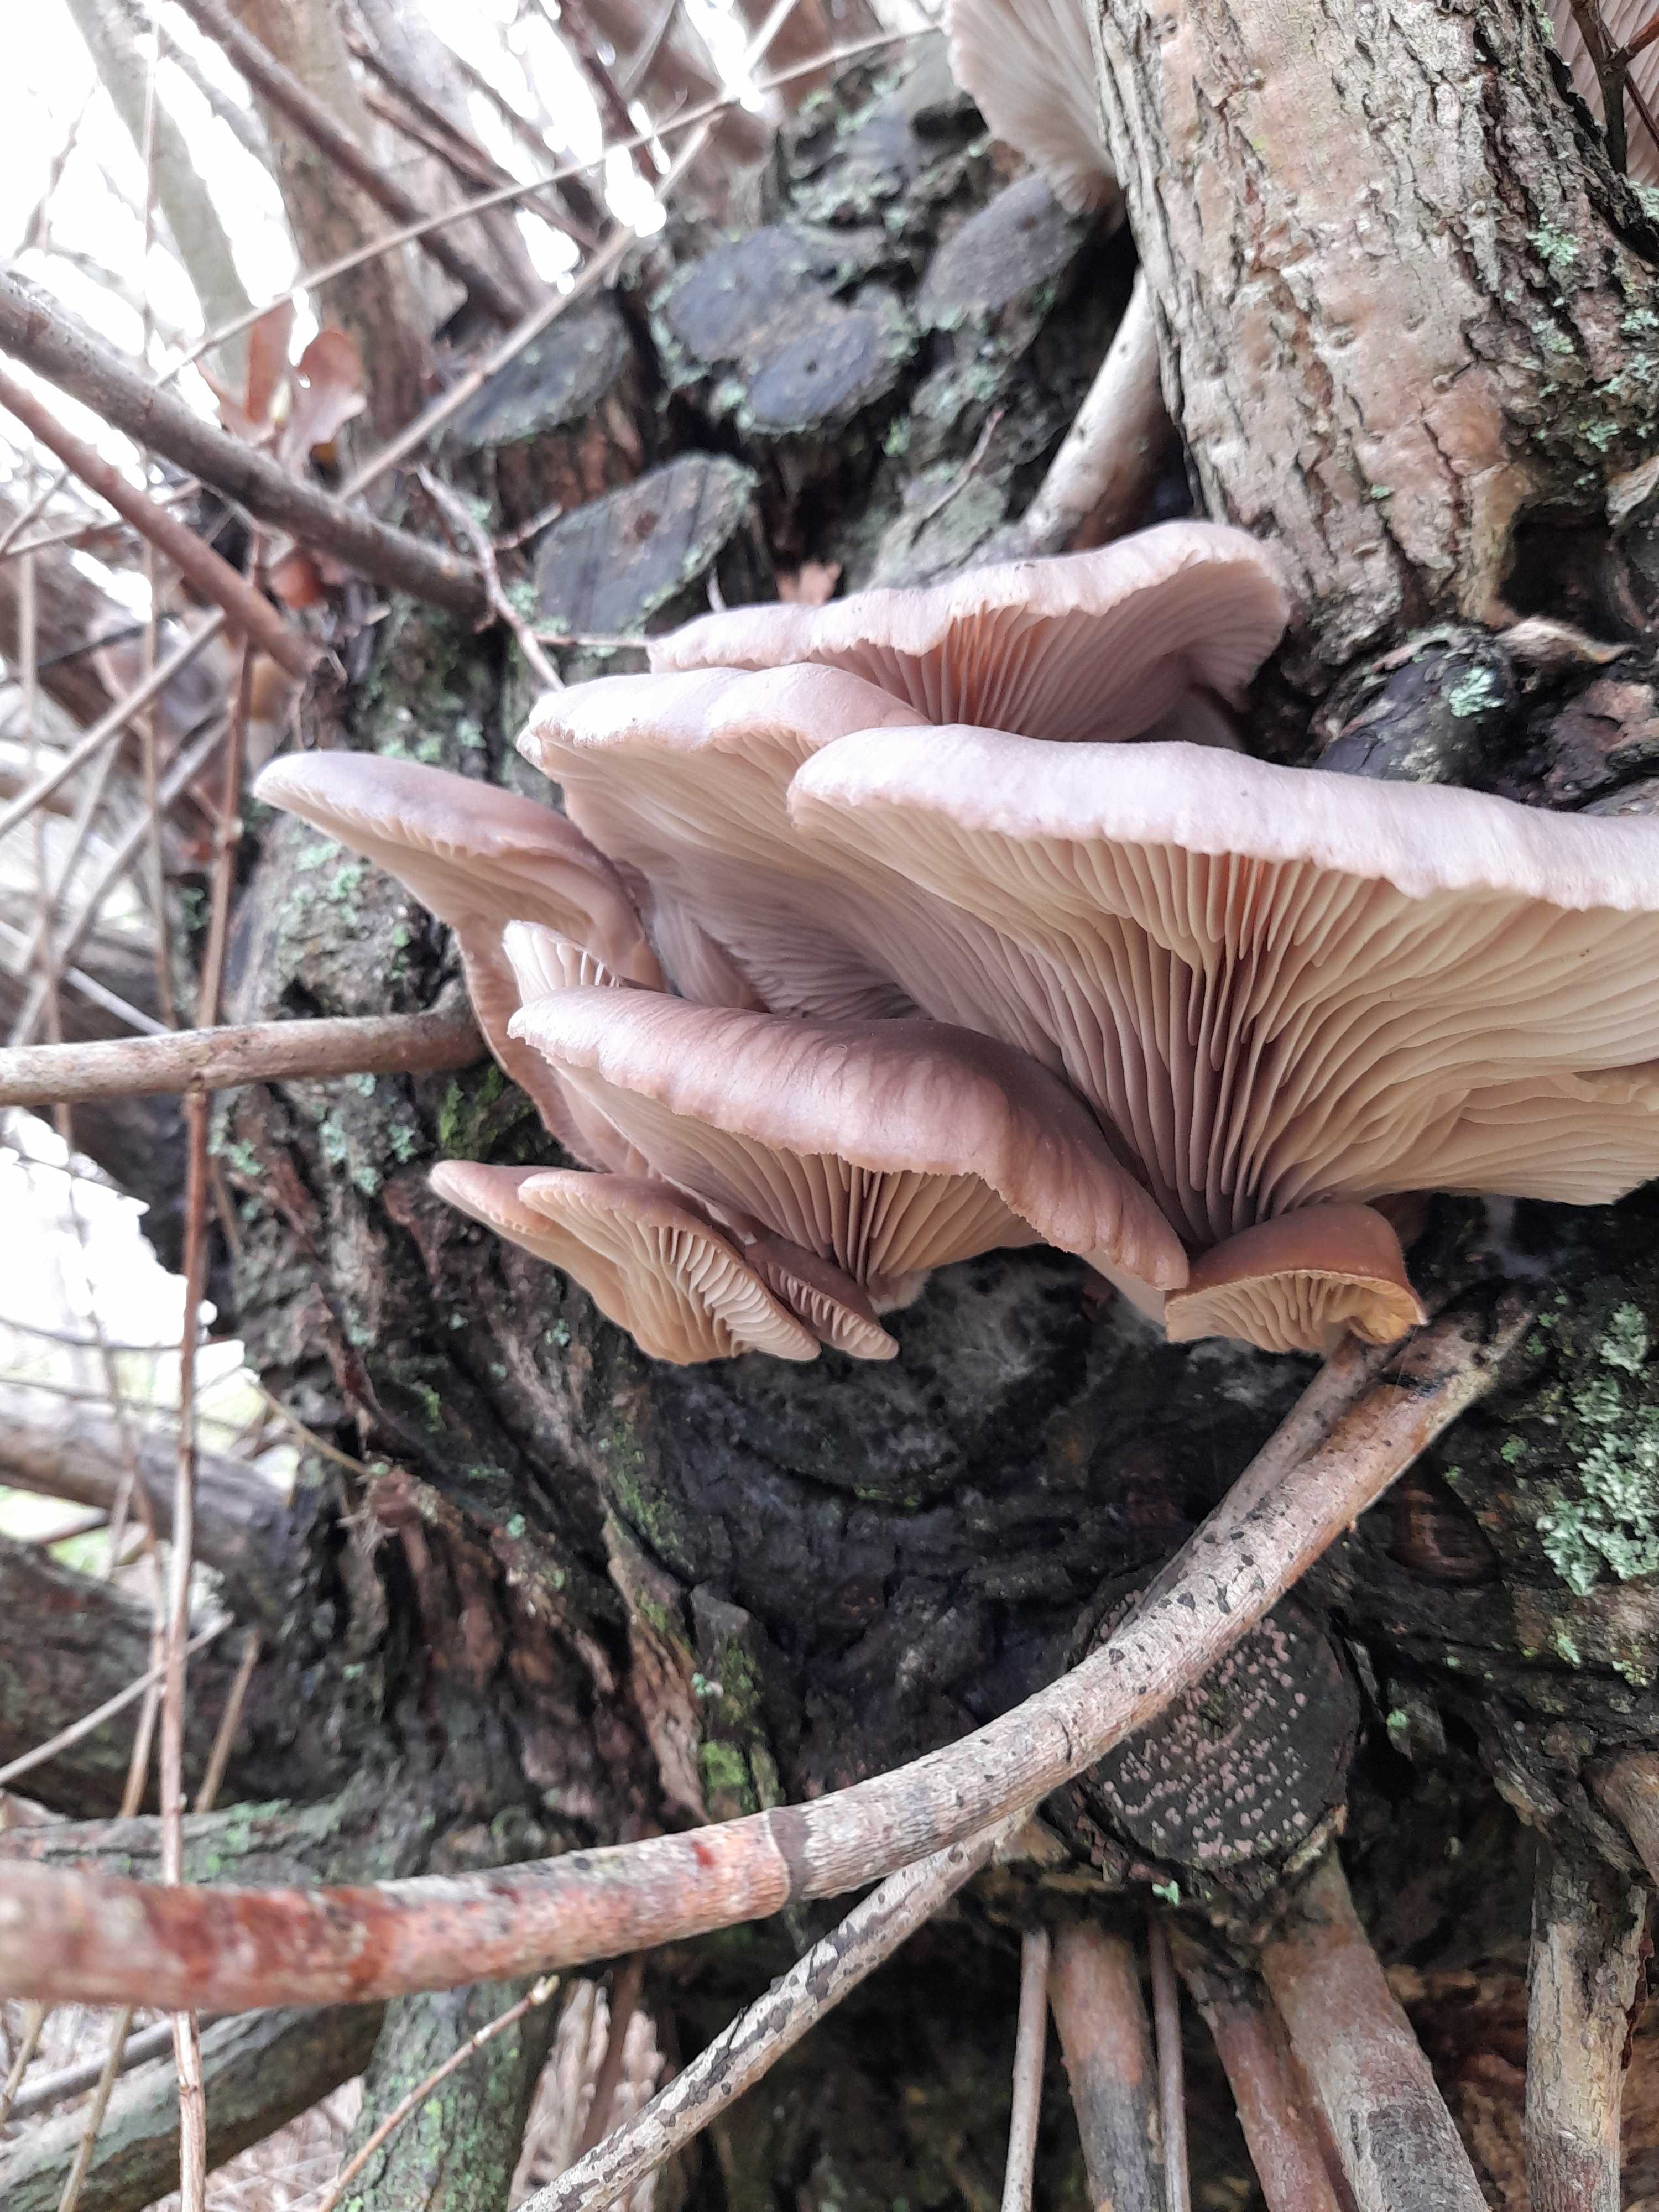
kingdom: Fungi
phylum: Basidiomycota
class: Agaricomycetes
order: Agaricales
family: Pleurotaceae
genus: Pleurotus
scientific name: Pleurotus ostreatus
